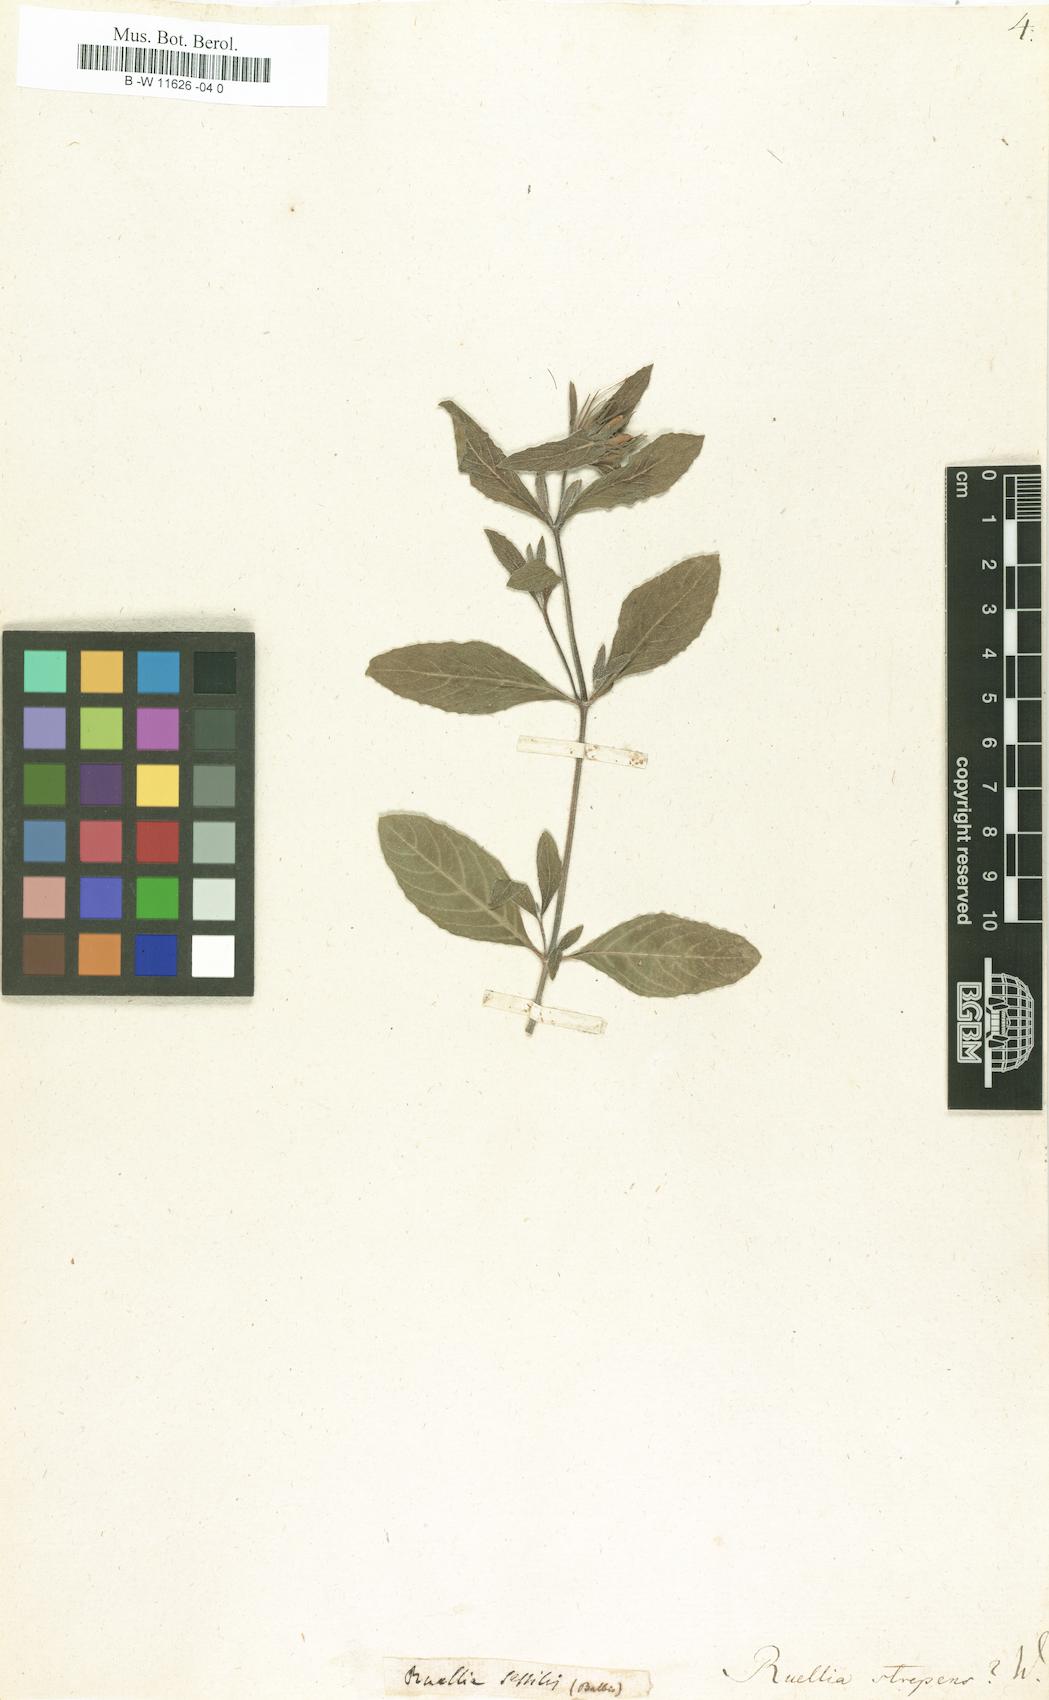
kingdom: Plantae
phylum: Tracheophyta
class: Magnoliopsida
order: Lamiales
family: Acanthaceae
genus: Ruellia
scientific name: Ruellia strepens
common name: Limestone wild petunia
